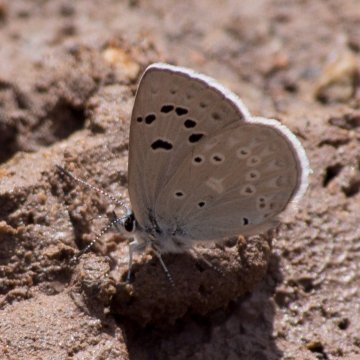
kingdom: Animalia
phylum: Arthropoda
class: Insecta
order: Lepidoptera
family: Lycaenidae
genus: Icaricia
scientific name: Icaricia icarioides
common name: Boisduval's Blue
